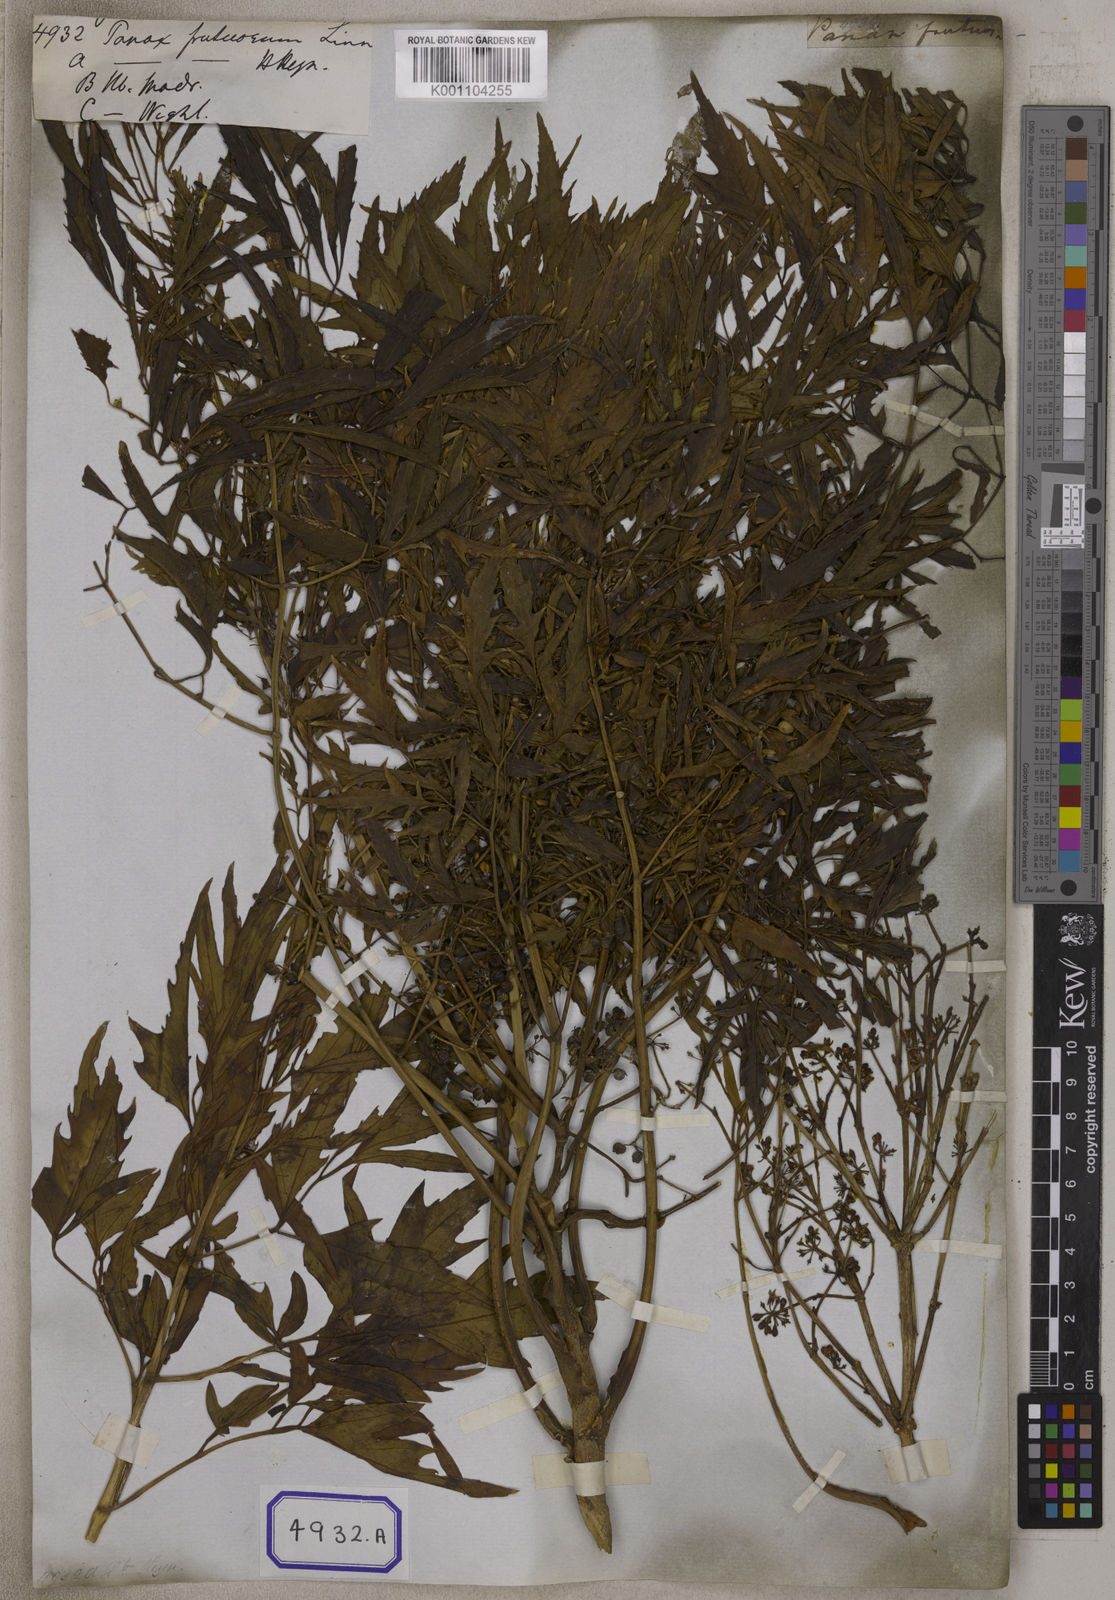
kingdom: Plantae
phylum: Tracheophyta
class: Magnoliopsida
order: Apiales
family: Araliaceae
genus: Polyscias
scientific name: Polyscias fruticosa
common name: Teatree
